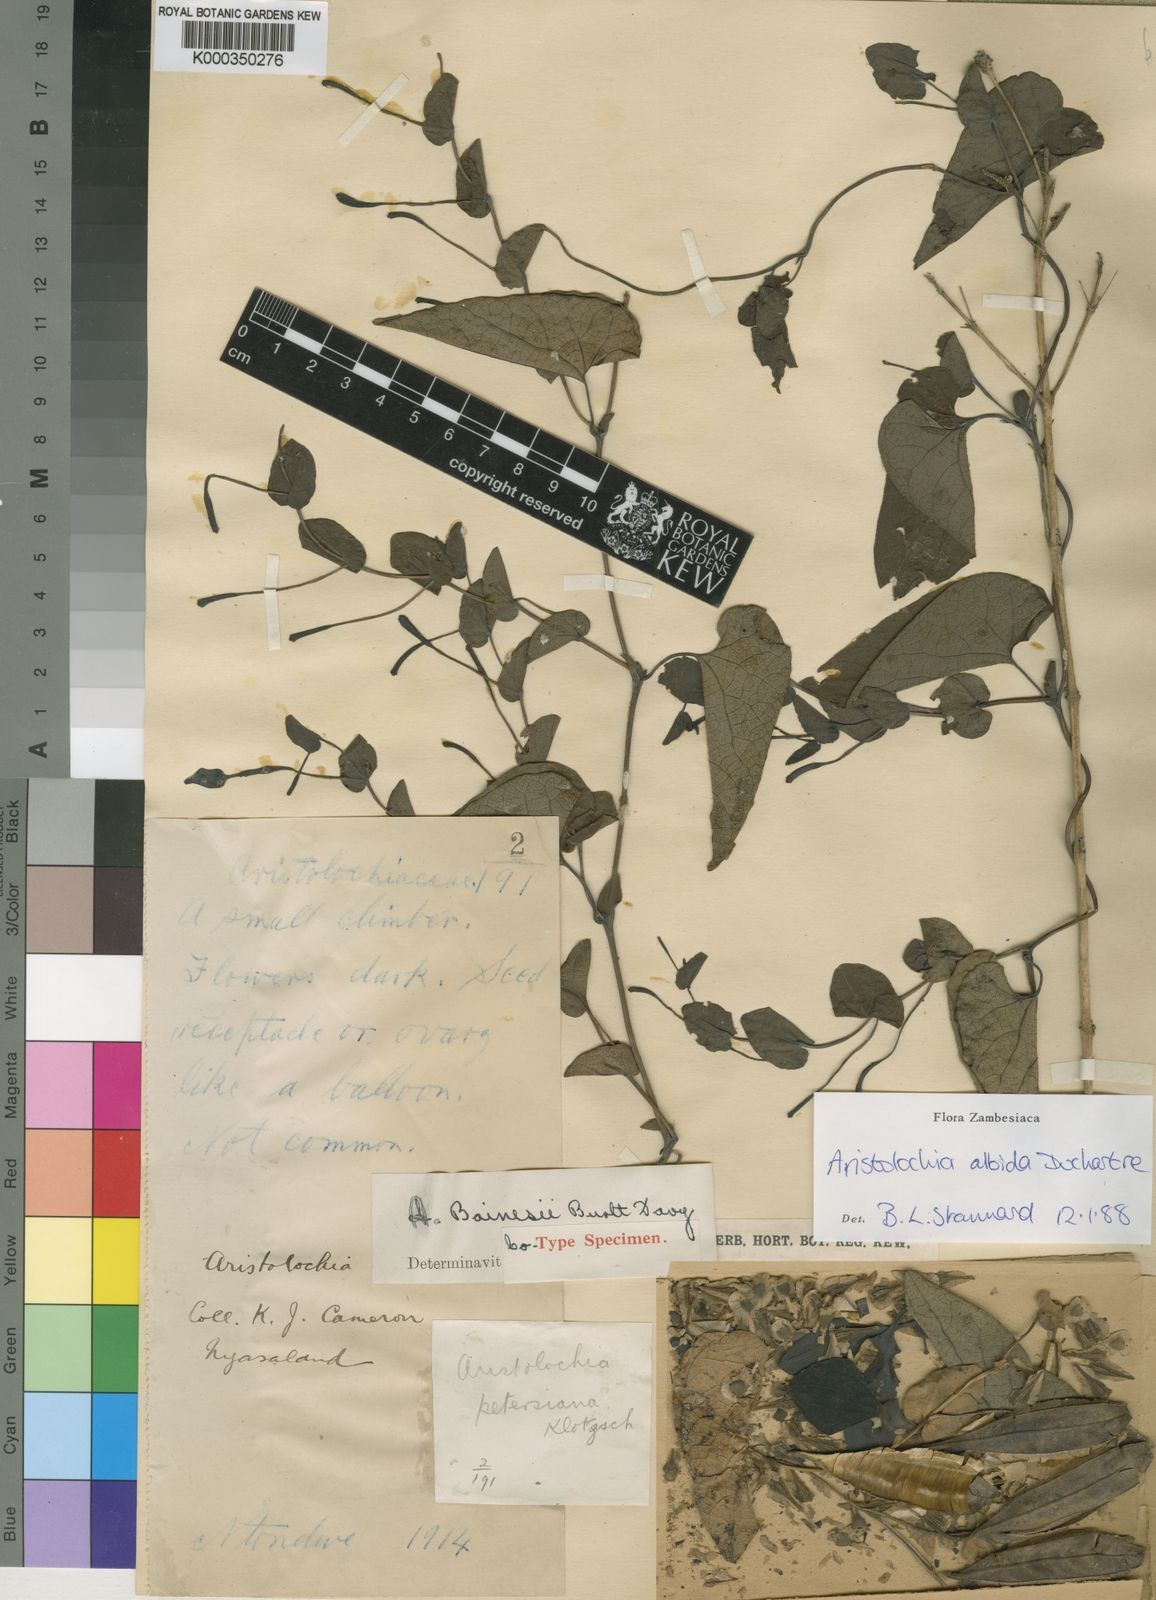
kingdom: Plantae
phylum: Tracheophyta
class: Magnoliopsida
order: Piperales
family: Aristolochiaceae
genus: Aristolochia
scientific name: Aristolochia albida
